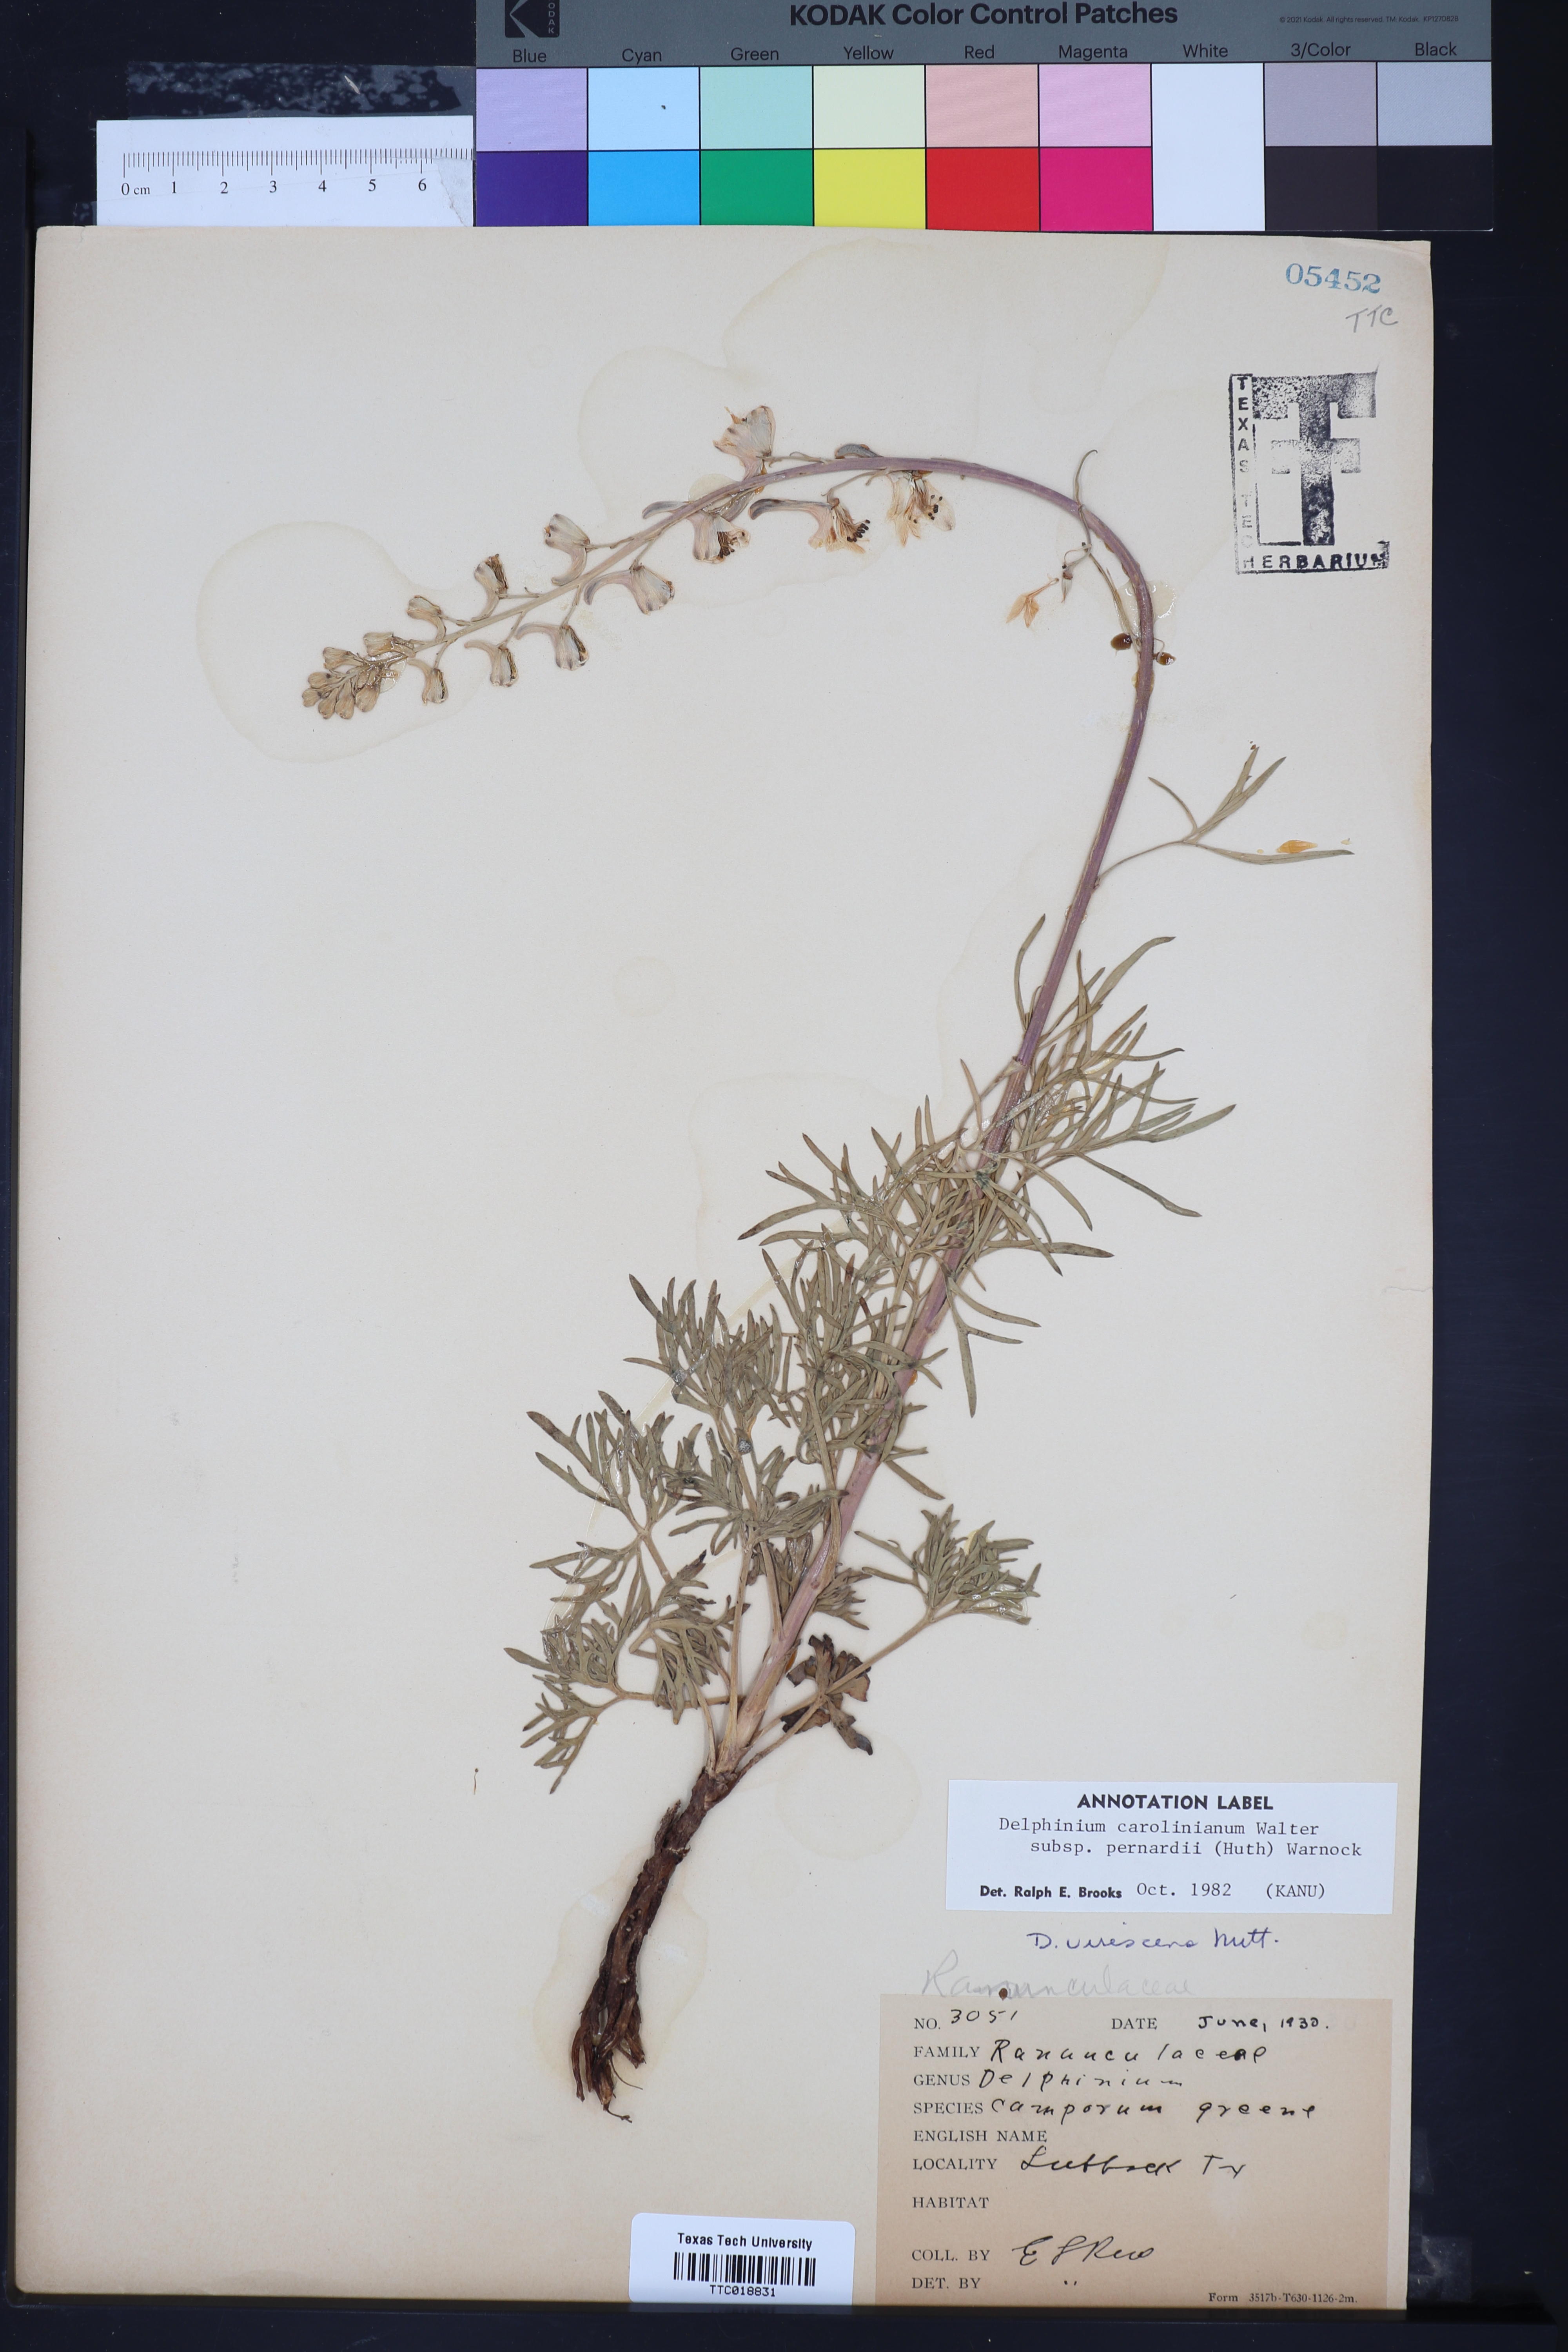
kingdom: Plantae
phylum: Tracheophyta
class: Magnoliopsida
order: Ranunculales
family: Ranunculaceae
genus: Delphinium
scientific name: Delphinium carolinianum
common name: Carolina larkspur
